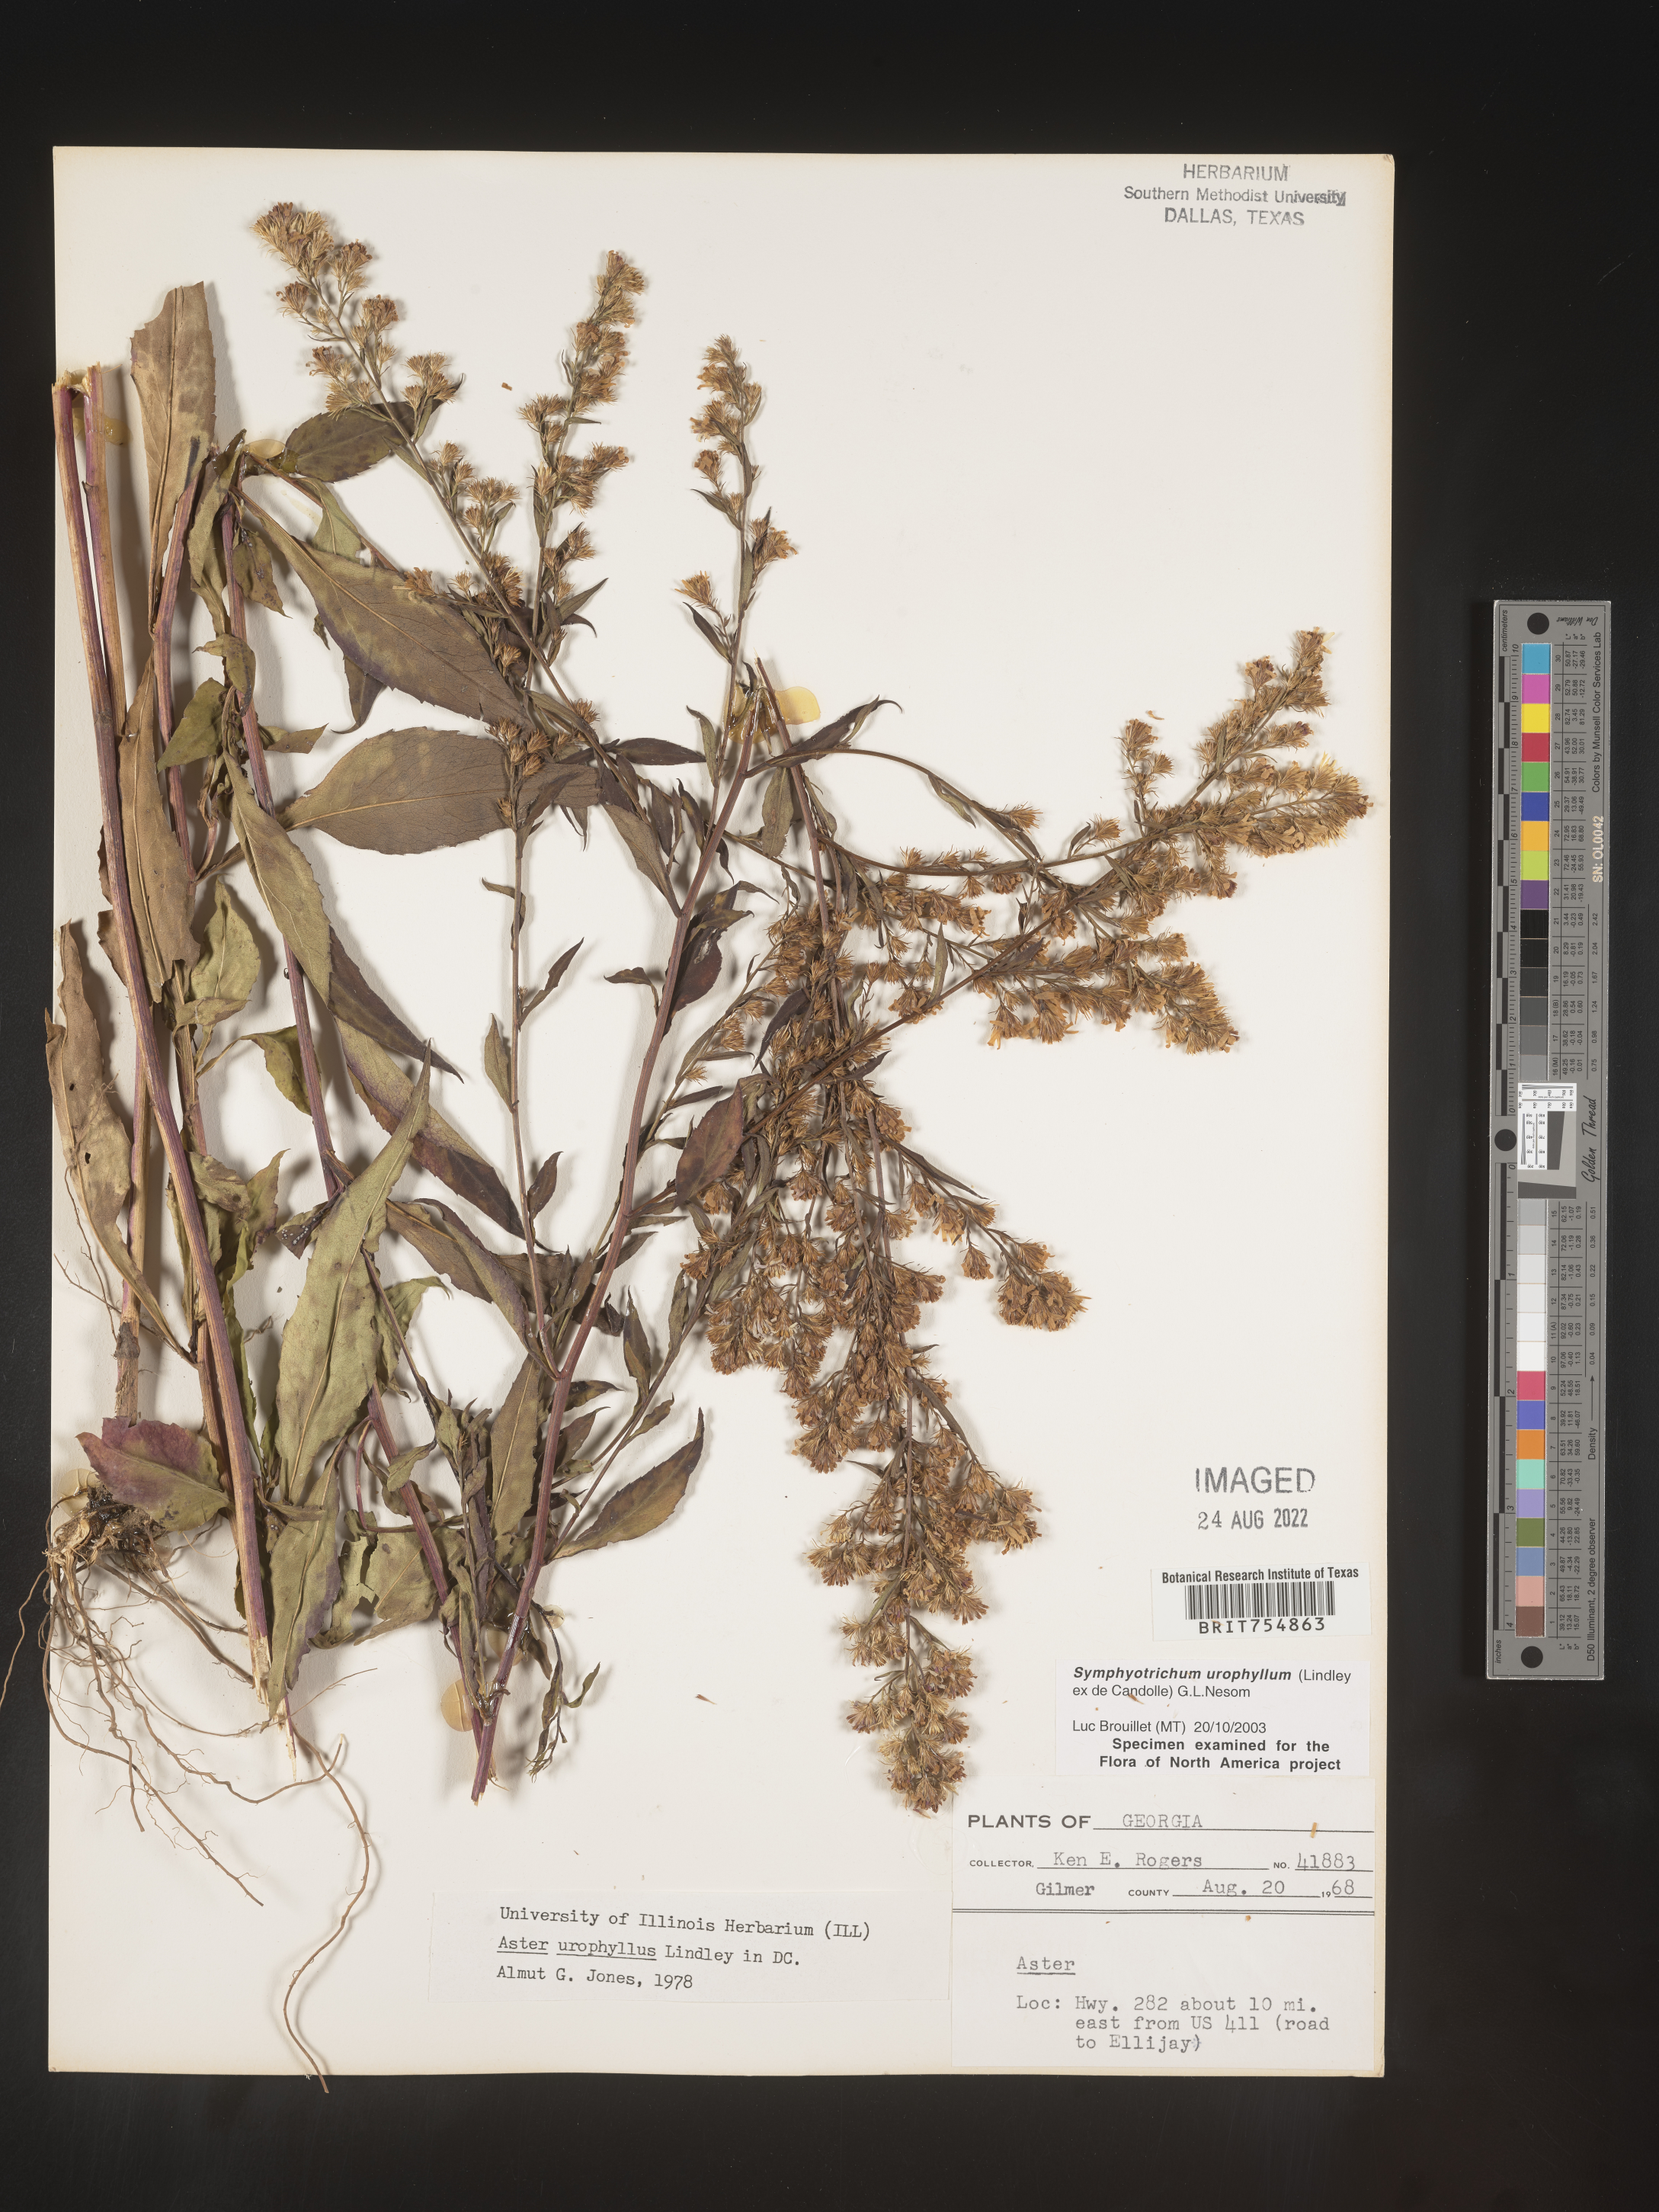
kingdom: Plantae
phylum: Tracheophyta
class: Magnoliopsida
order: Asterales
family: Asteraceae
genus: Symphyotrichum
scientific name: Symphyotrichum urophyllum
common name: Arrow-leaved aster
